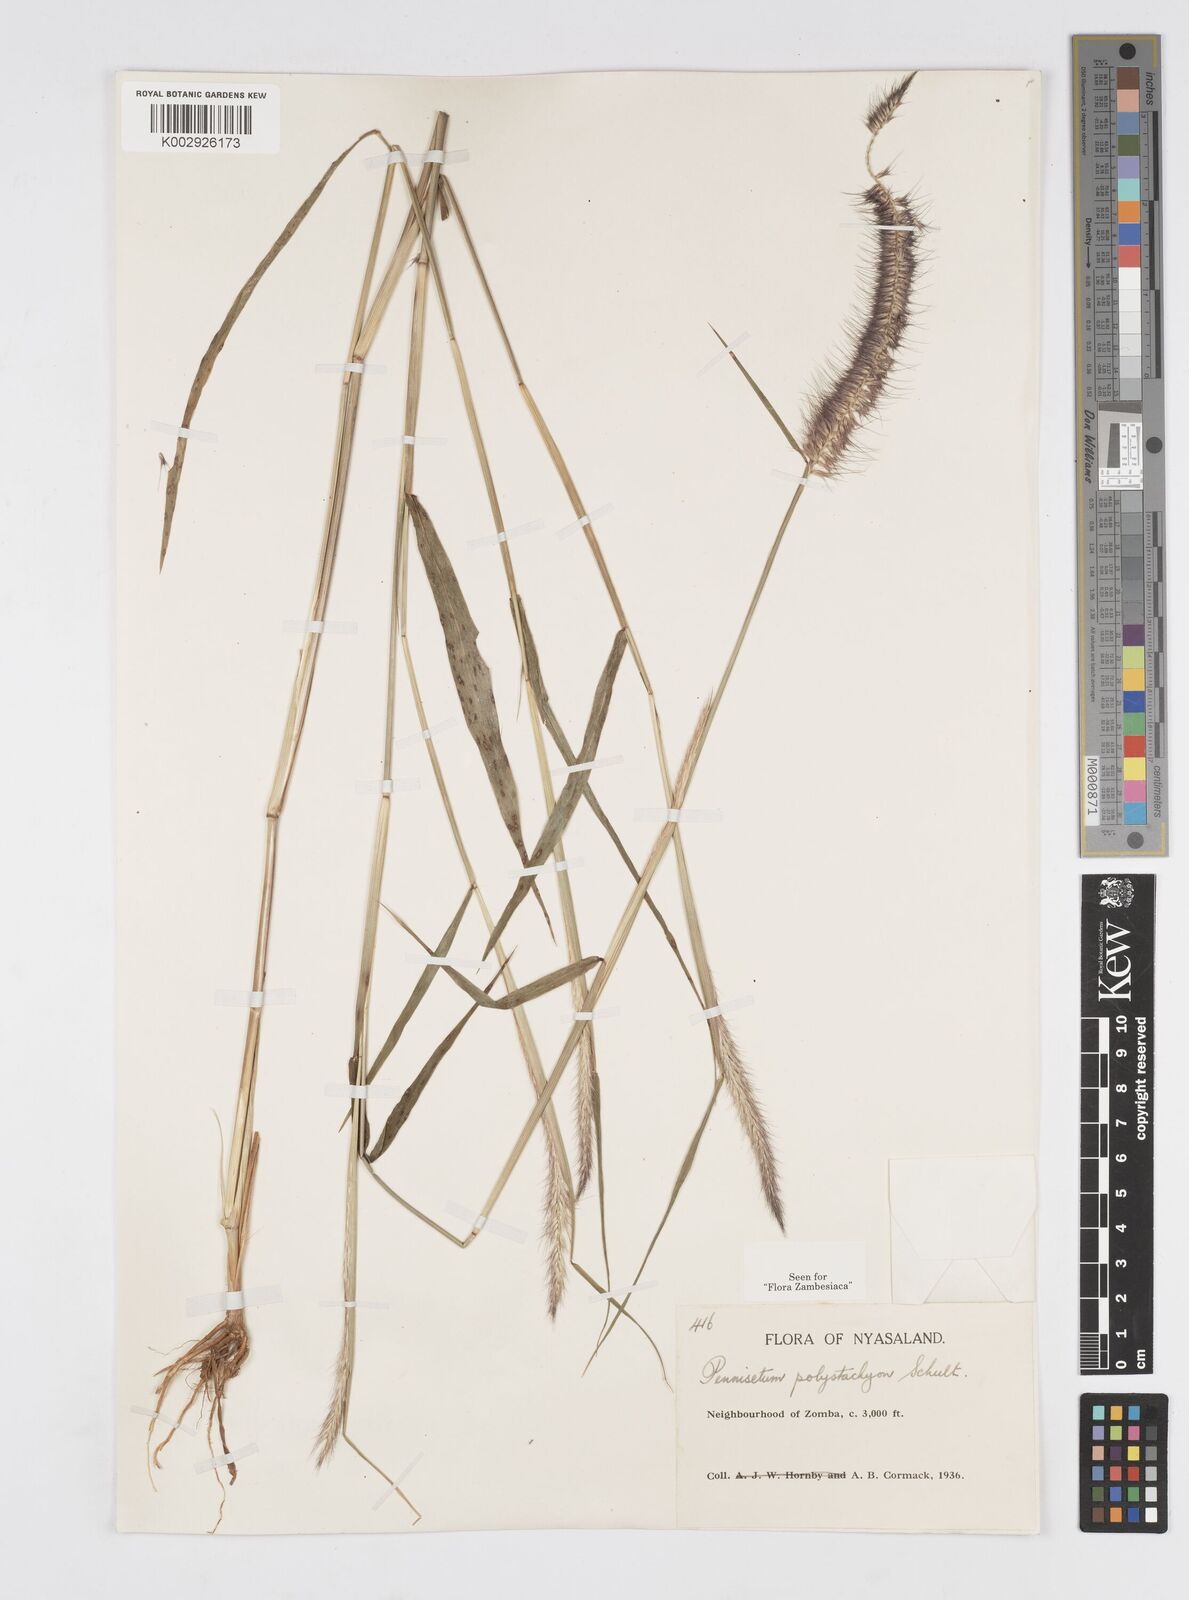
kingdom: Plantae
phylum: Tracheophyta
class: Liliopsida
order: Poales
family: Poaceae
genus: Setaria
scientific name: Setaria parviflora
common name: Knotroot bristle-grass
